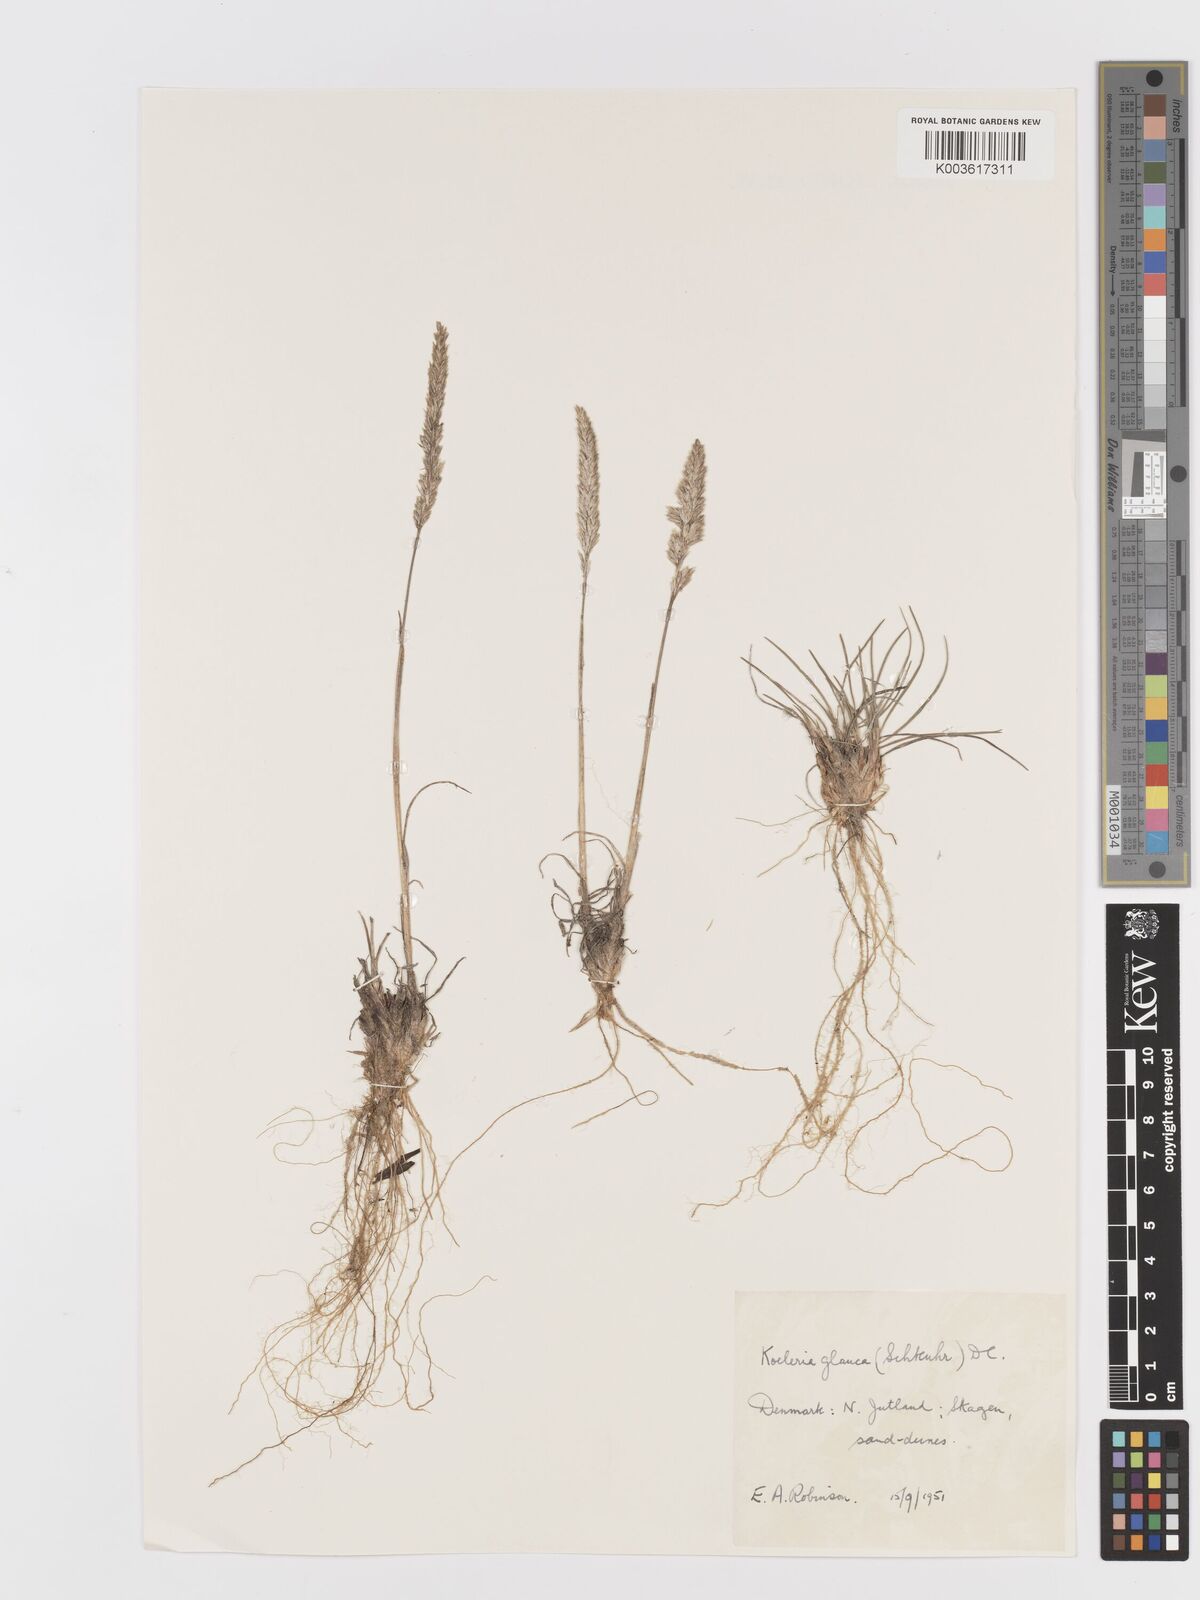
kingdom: Plantae
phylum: Tracheophyta
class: Liliopsida
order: Poales
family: Poaceae
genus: Koeleria
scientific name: Koeleria glauca
